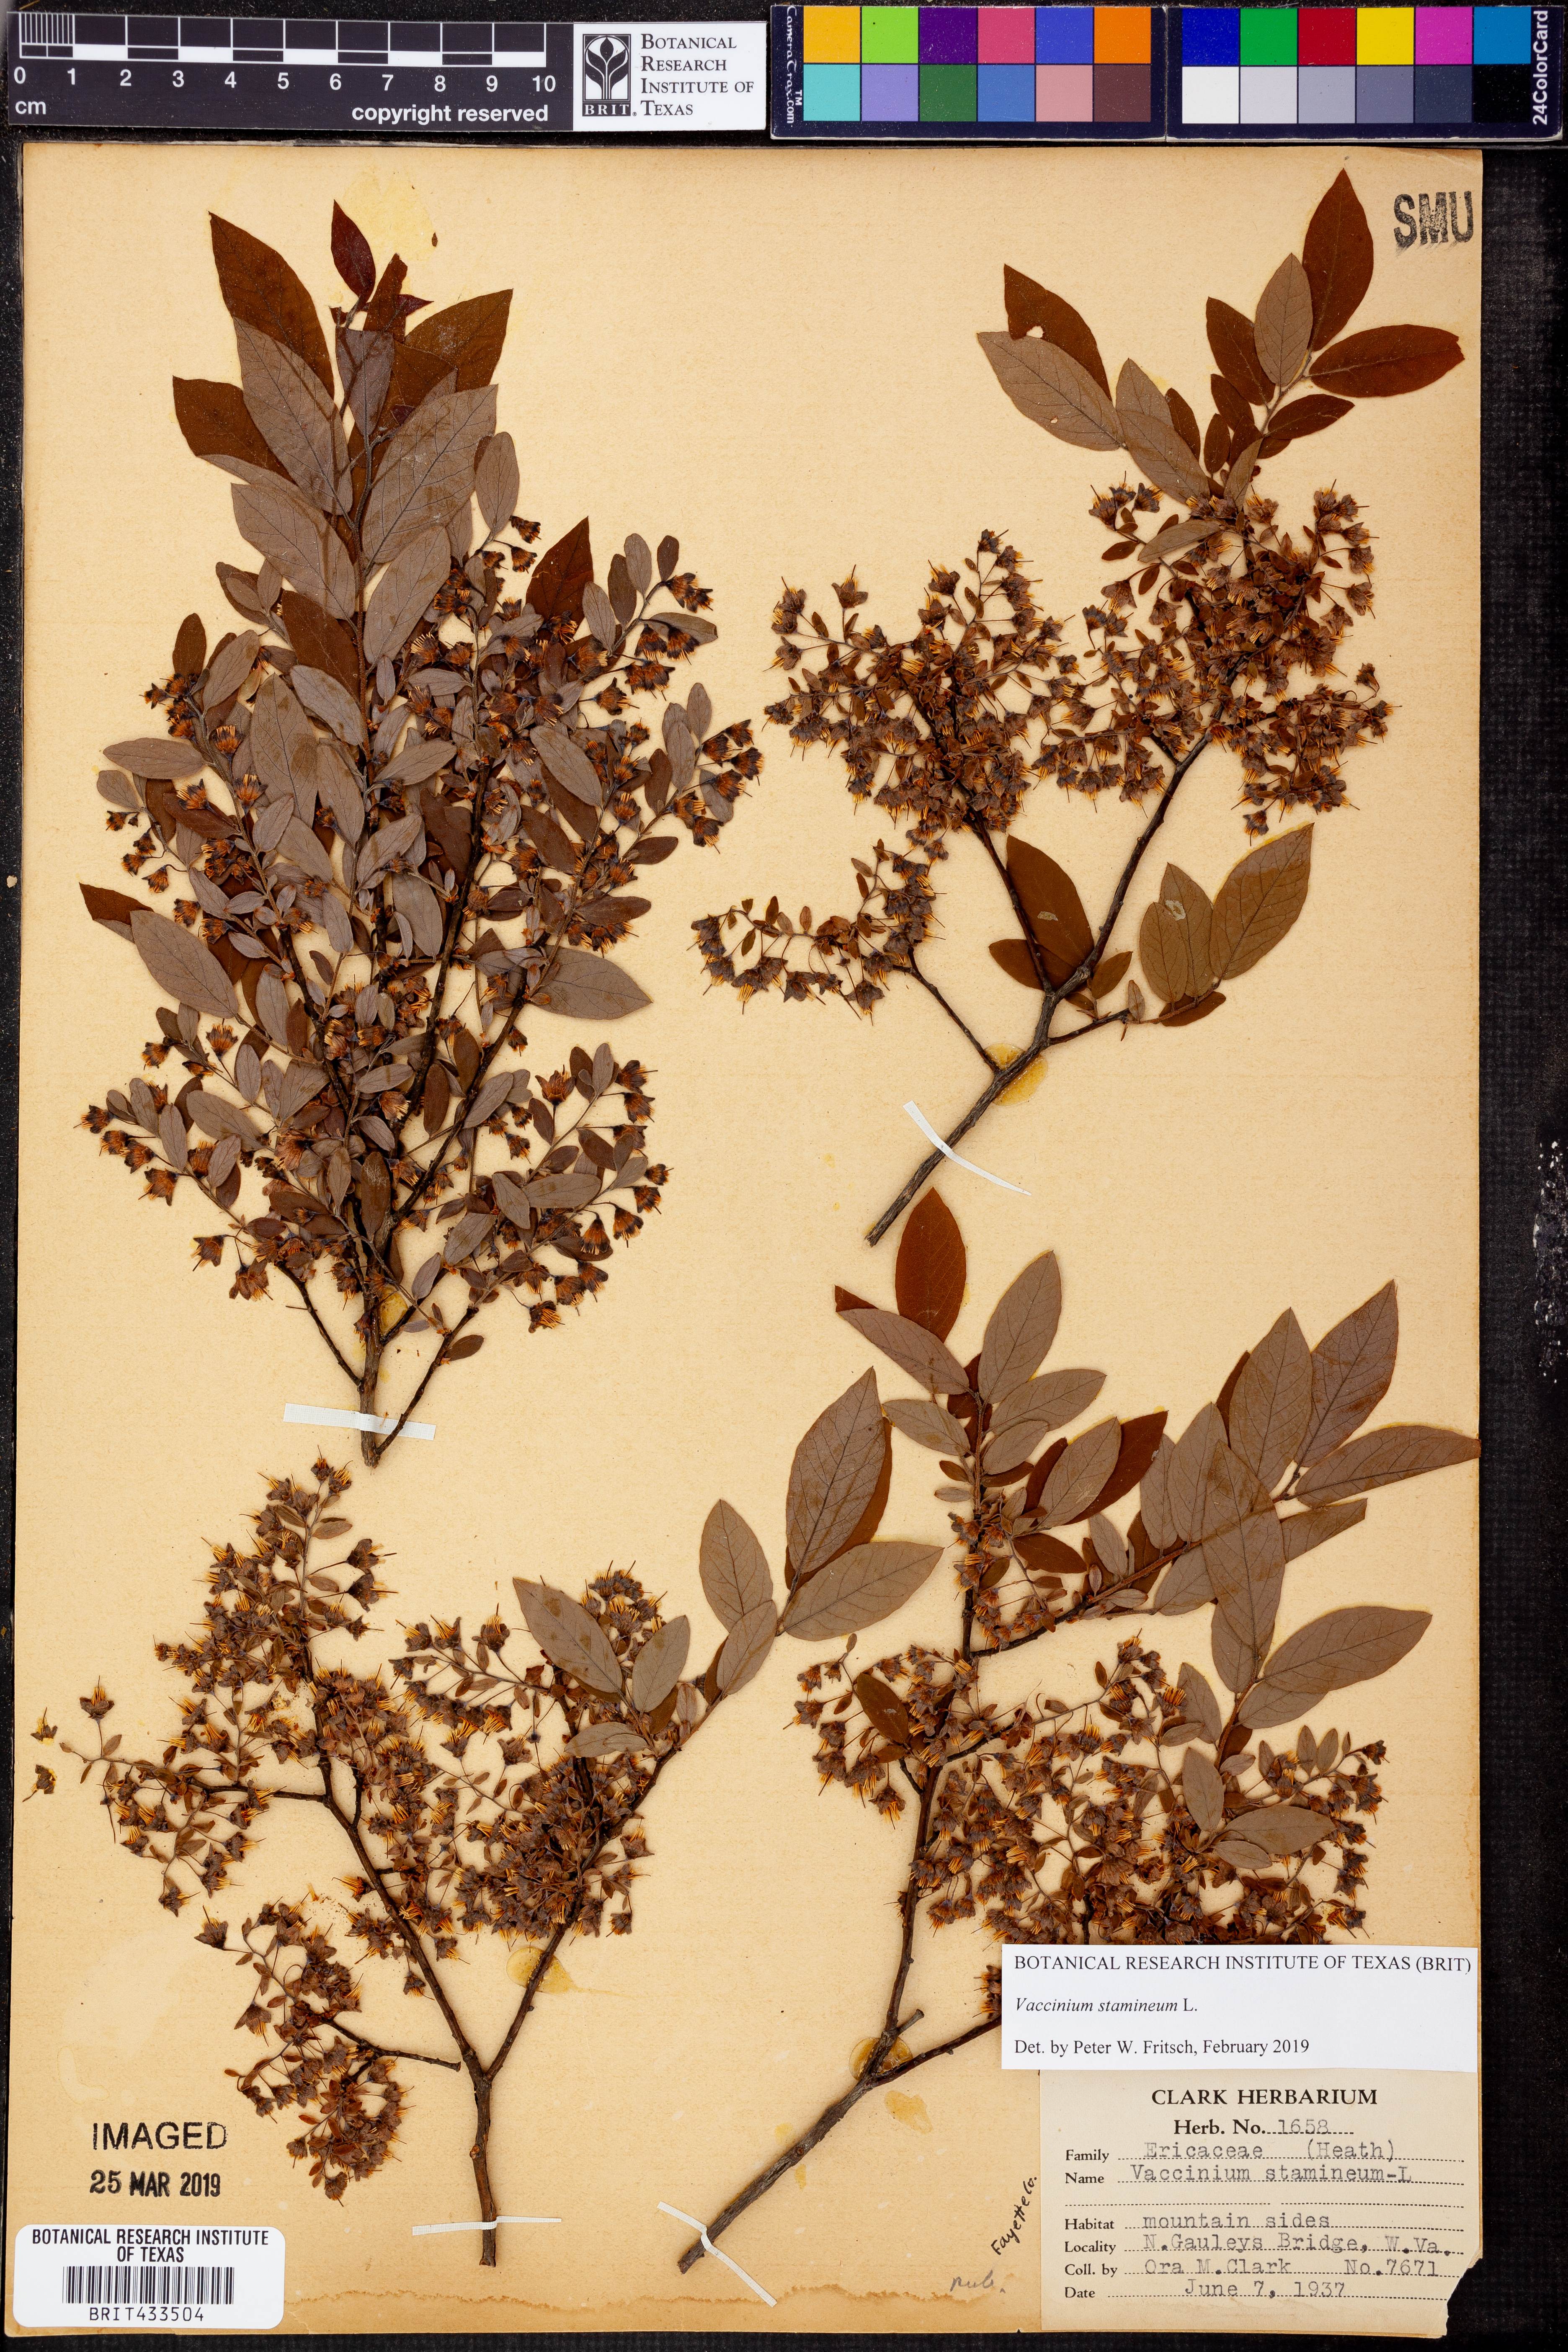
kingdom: Plantae
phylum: Tracheophyta
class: Magnoliopsida
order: Ericales
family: Ericaceae
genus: Vaccinium
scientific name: Vaccinium stamineum
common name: Deerberry
